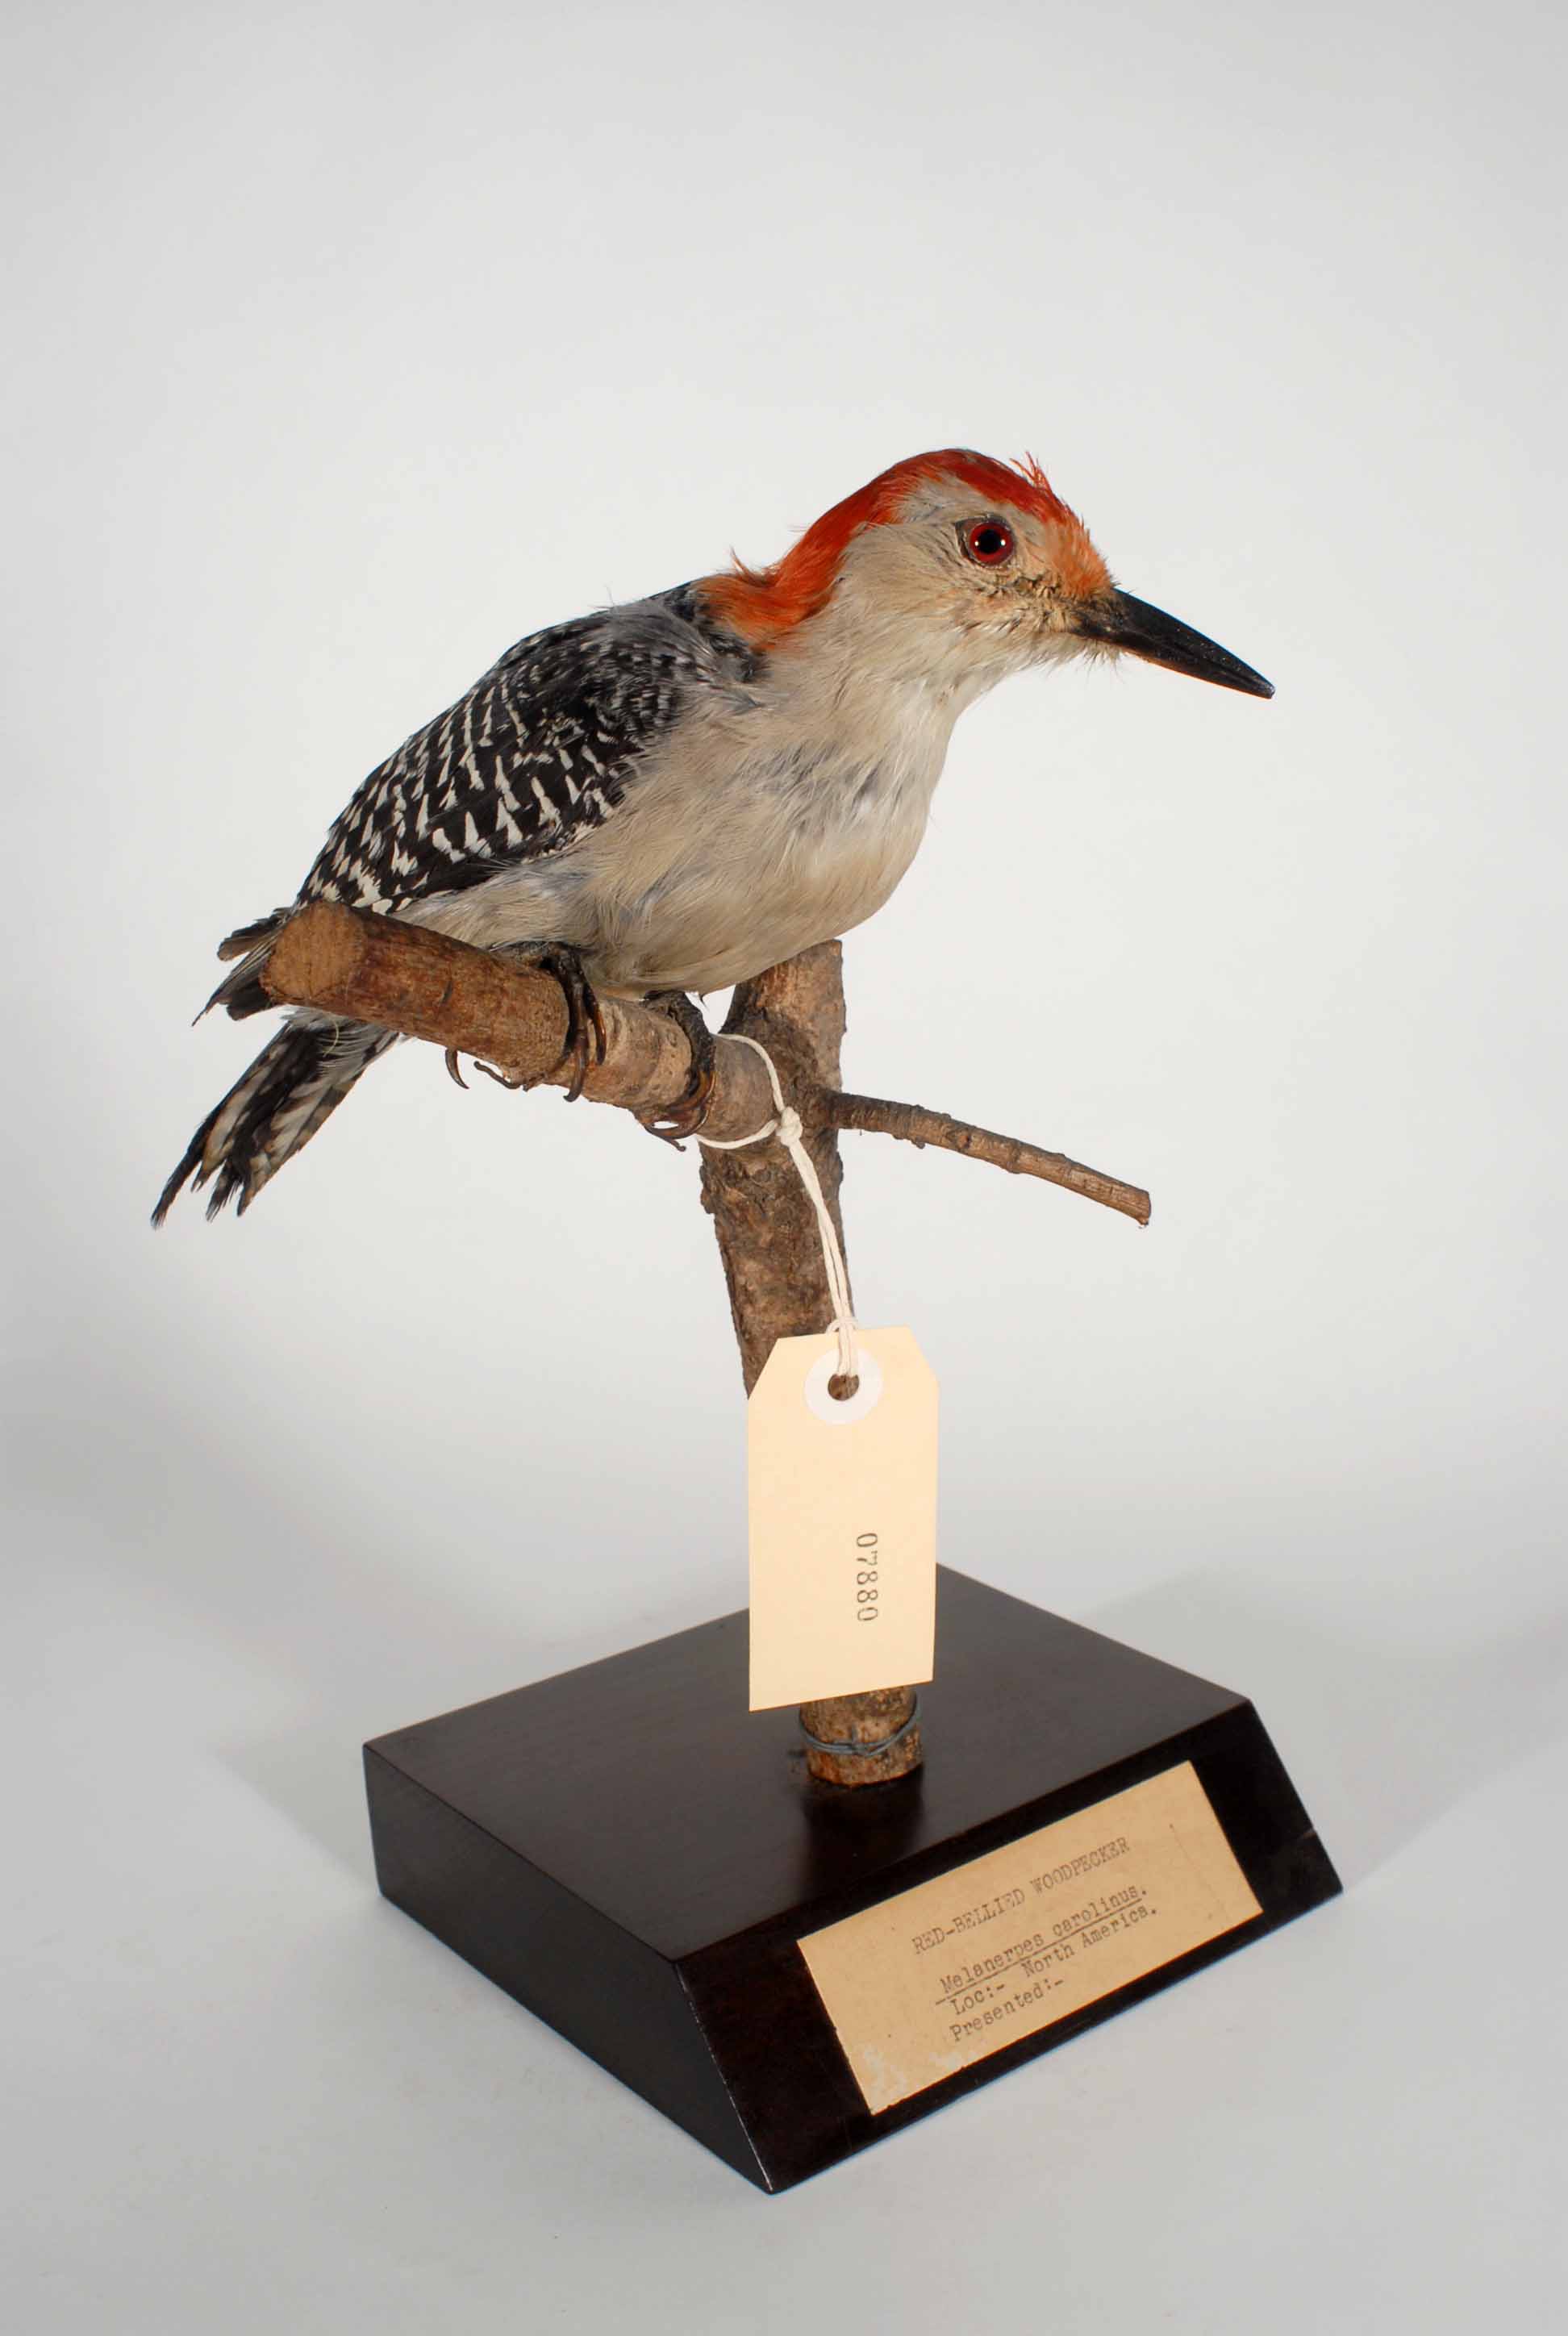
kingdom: Animalia
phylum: Chordata
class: Aves
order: Piciformes
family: Picidae
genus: Melanerpes
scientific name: Melanerpes carolinus
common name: Red-bellied woodpecker
